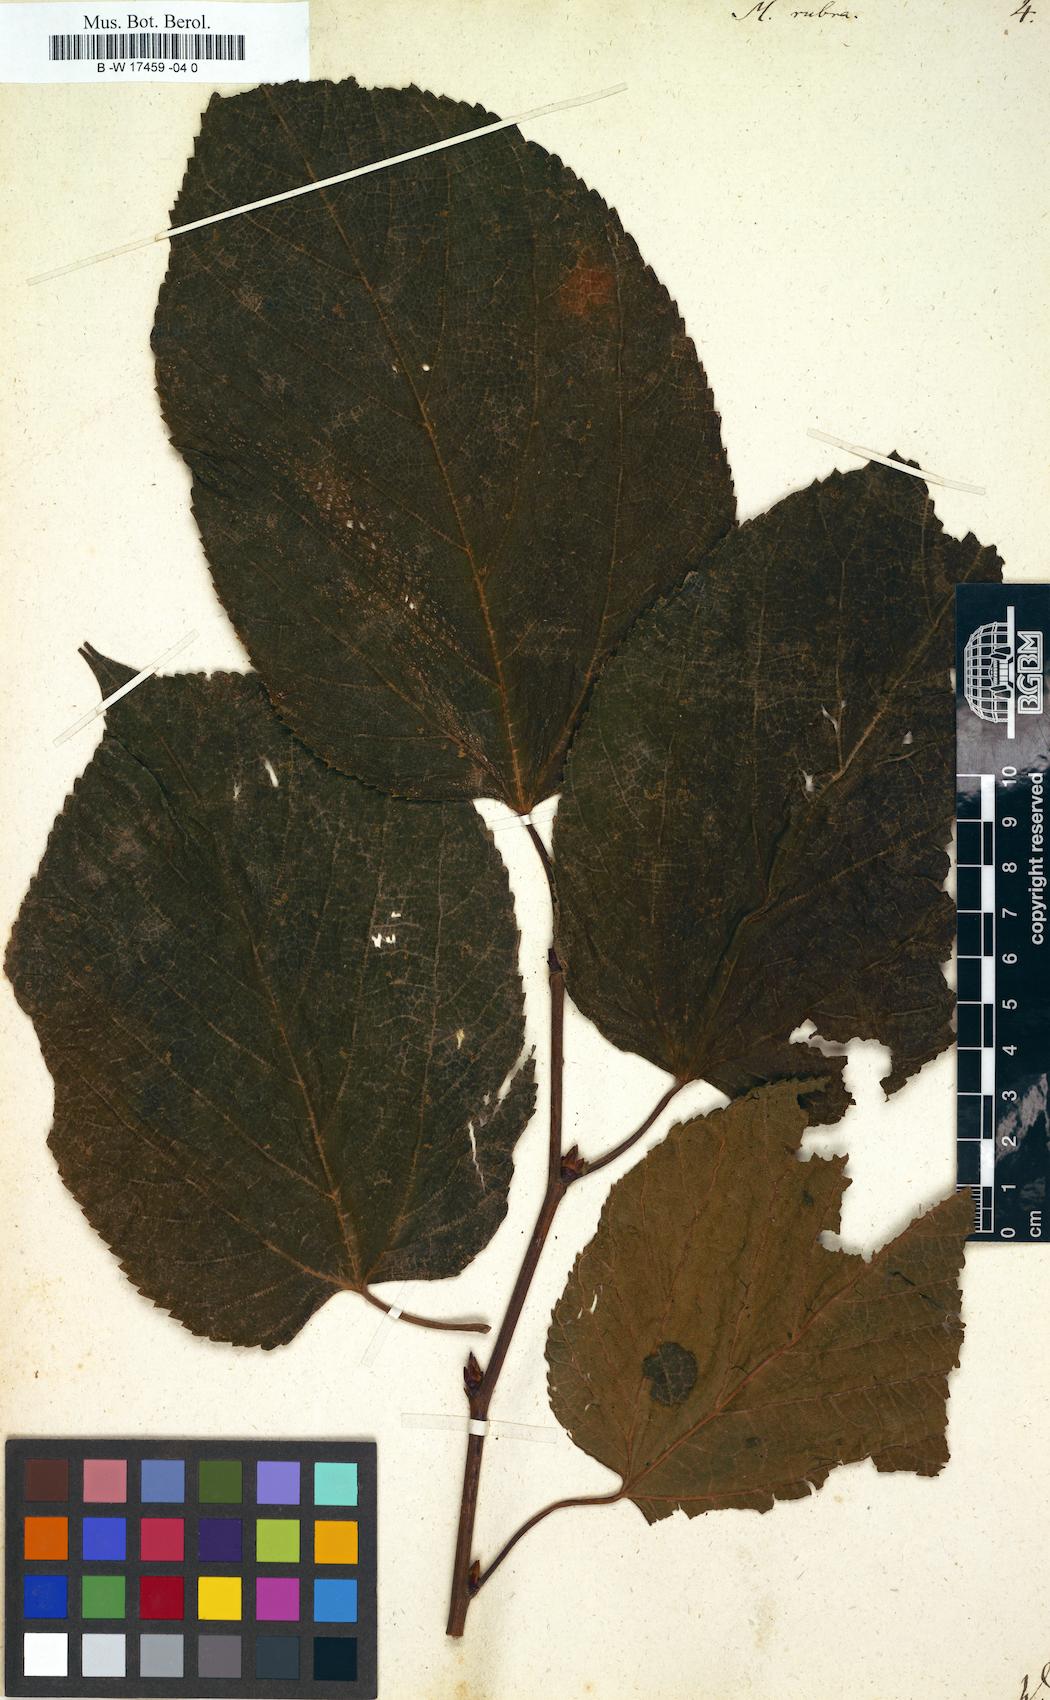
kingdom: Plantae
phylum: Tracheophyta
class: Magnoliopsida
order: Rosales
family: Moraceae
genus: Morus
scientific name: Morus rubra
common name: Red mulberry
